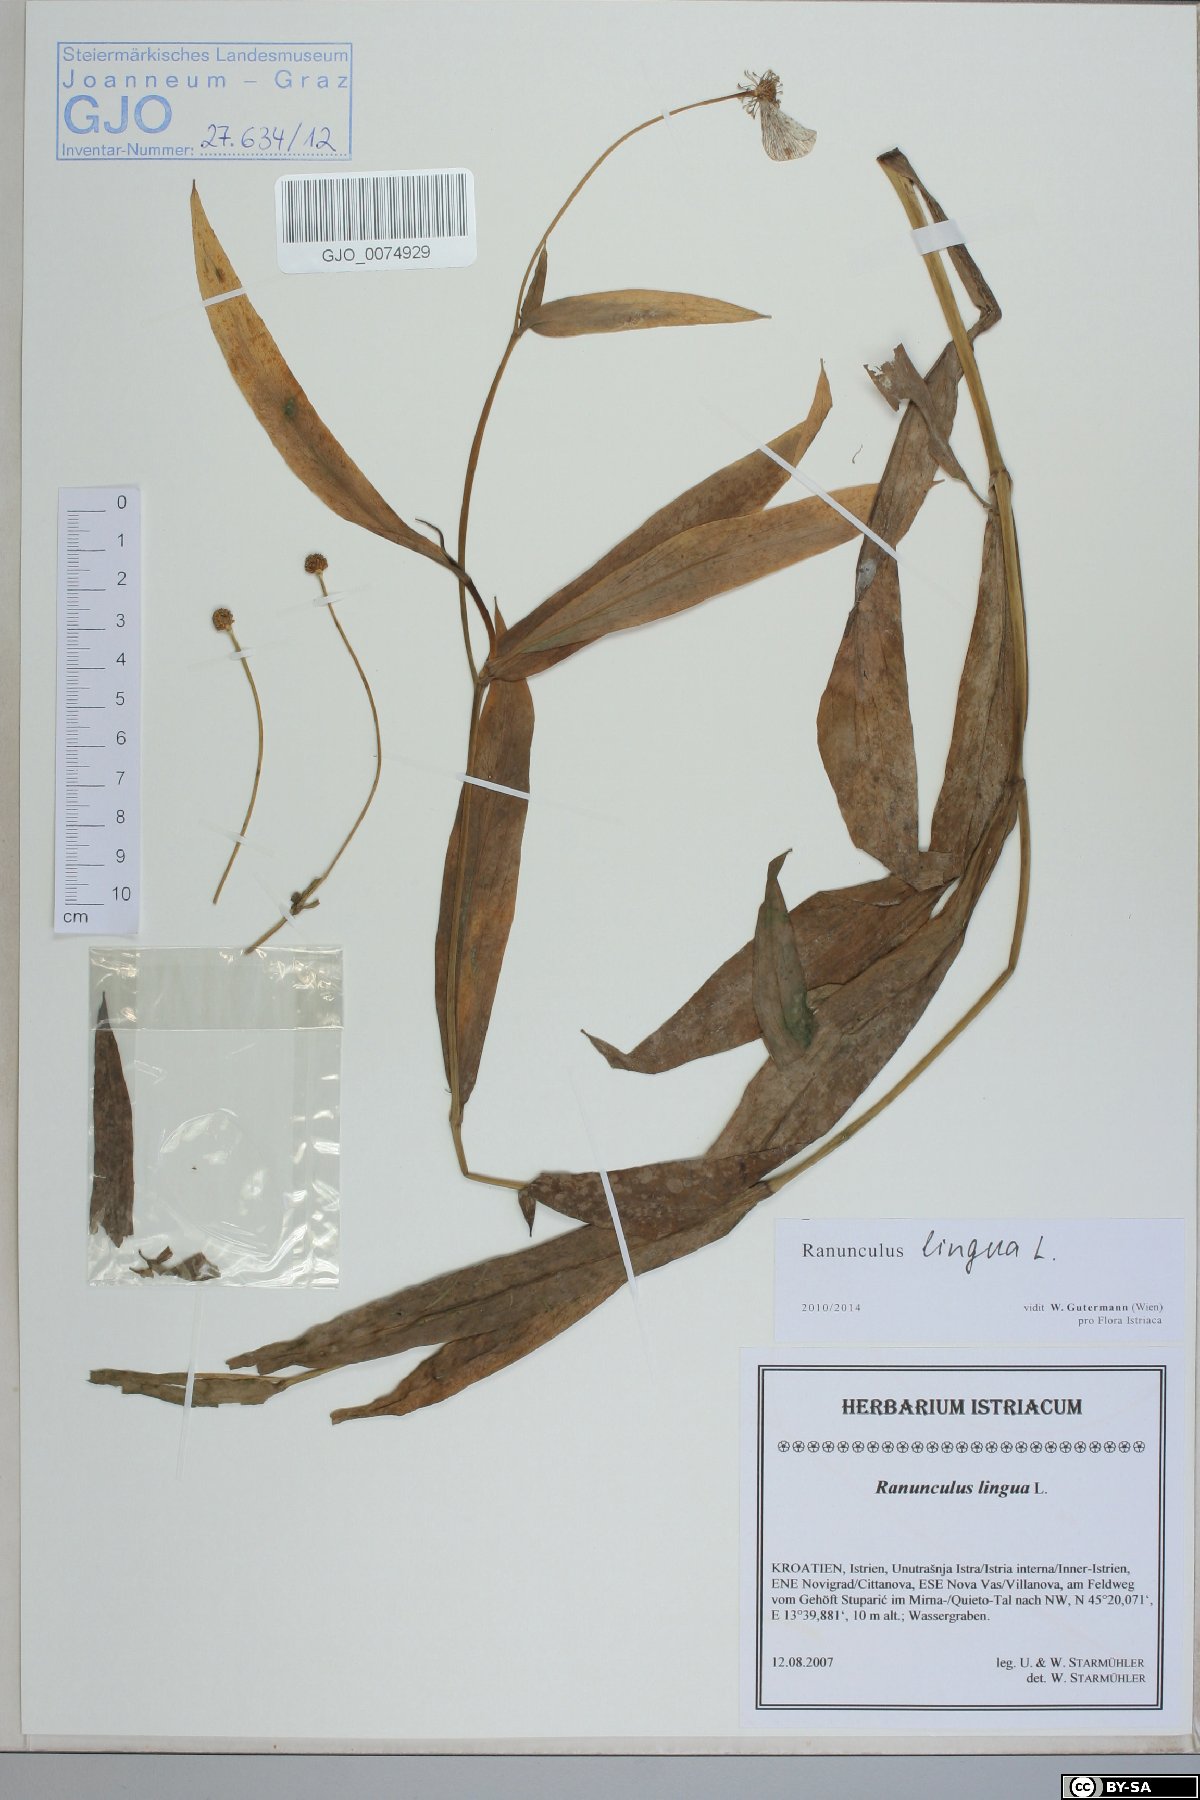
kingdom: Plantae
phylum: Tracheophyta
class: Magnoliopsida
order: Ranunculales
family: Ranunculaceae
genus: Ranunculus
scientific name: Ranunculus lingua
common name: Greater spearwort
